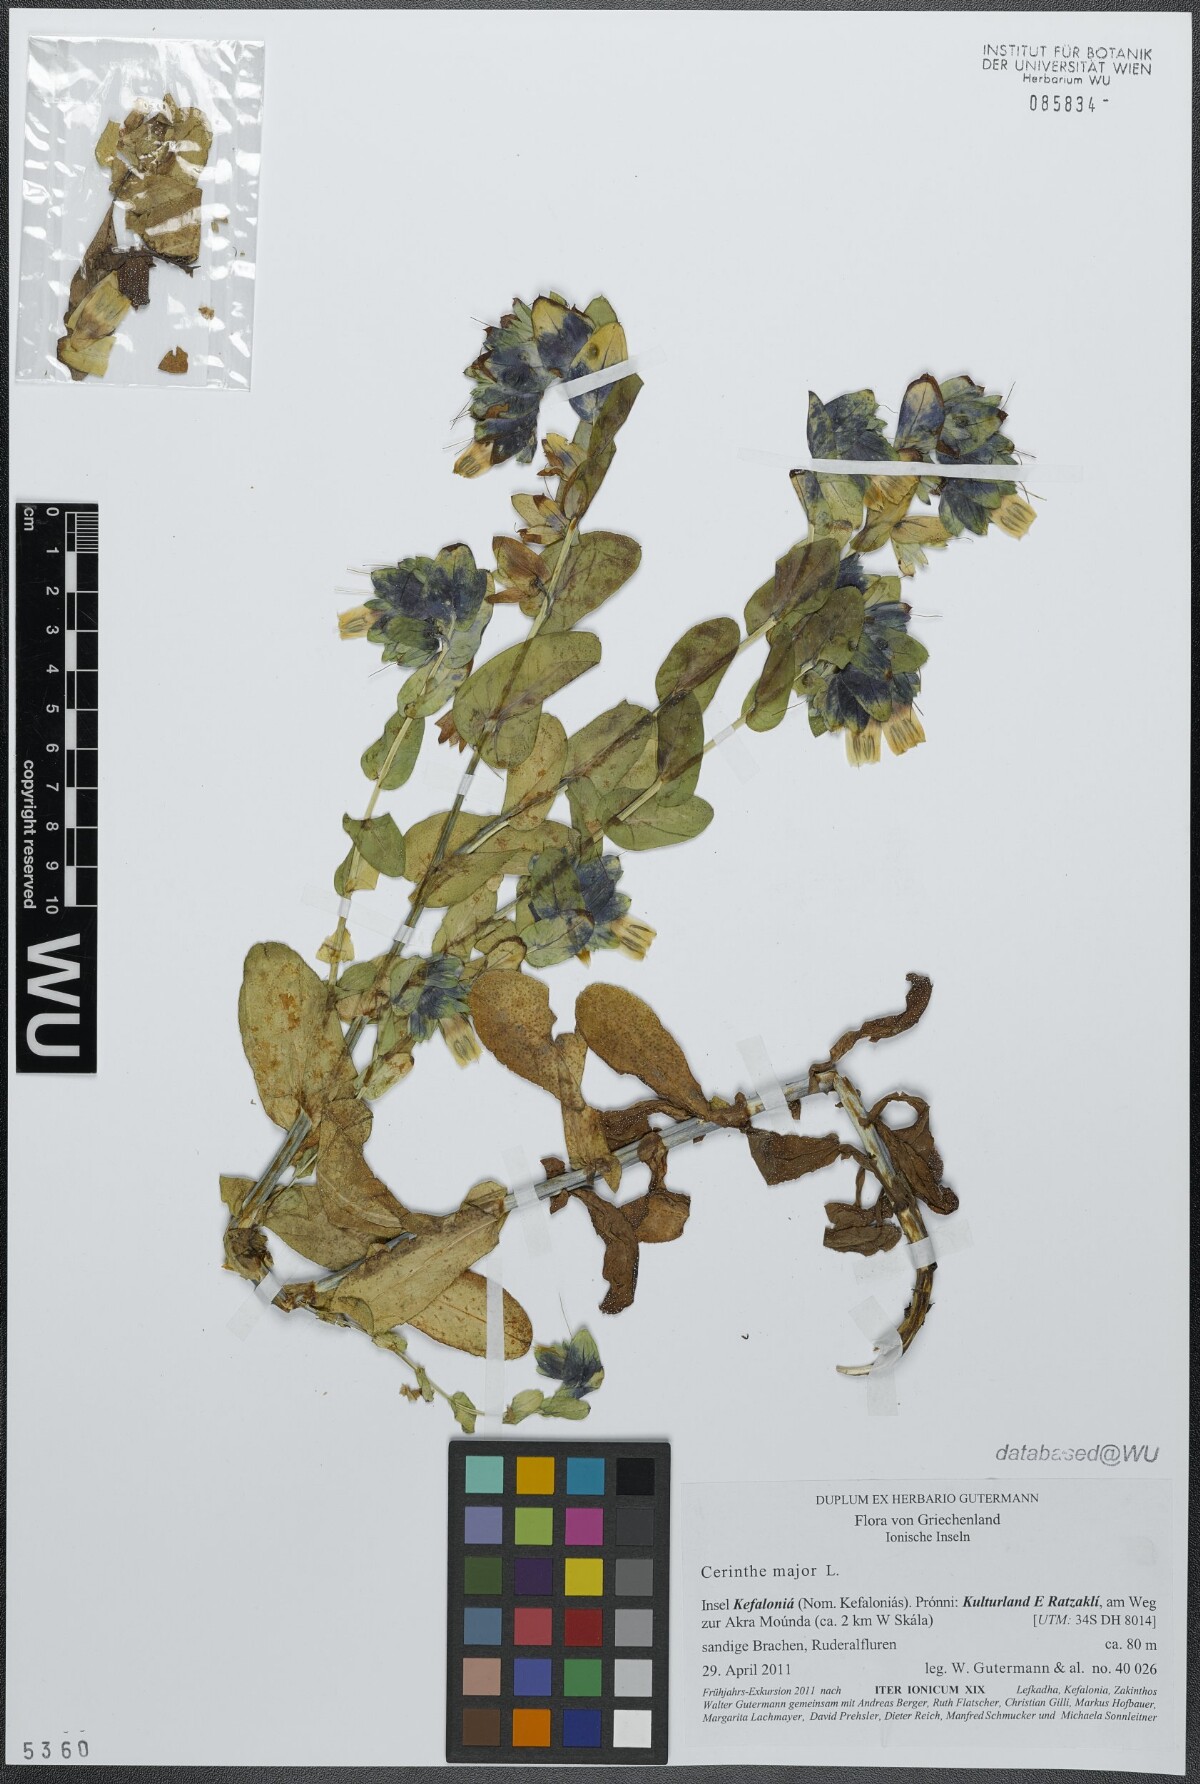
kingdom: Plantae
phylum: Tracheophyta
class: Magnoliopsida
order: Boraginales
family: Boraginaceae
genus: Cerinthe
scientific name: Cerinthe major
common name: Greater honeywort
